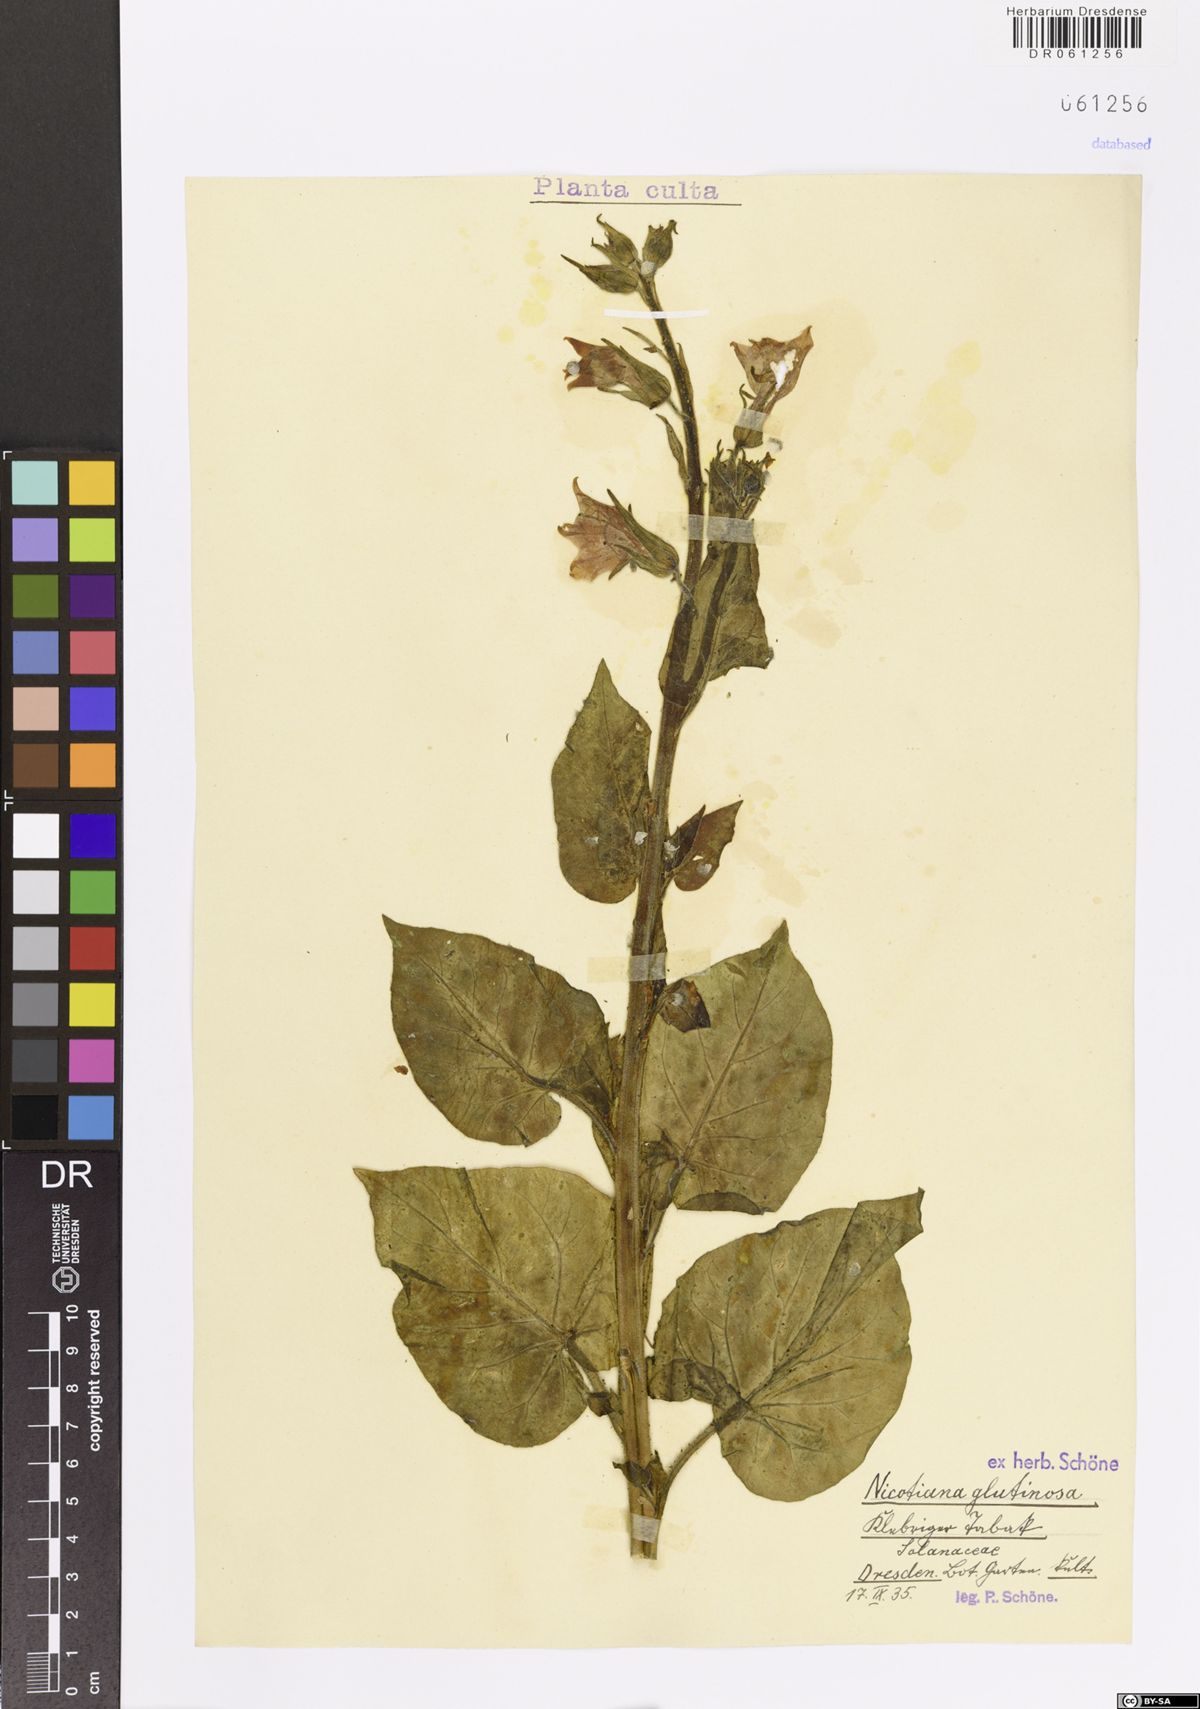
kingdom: Plantae
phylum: Tracheophyta
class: Magnoliopsida
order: Solanales
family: Solanaceae
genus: Nicotiana
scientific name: Nicotiana glutinosa
